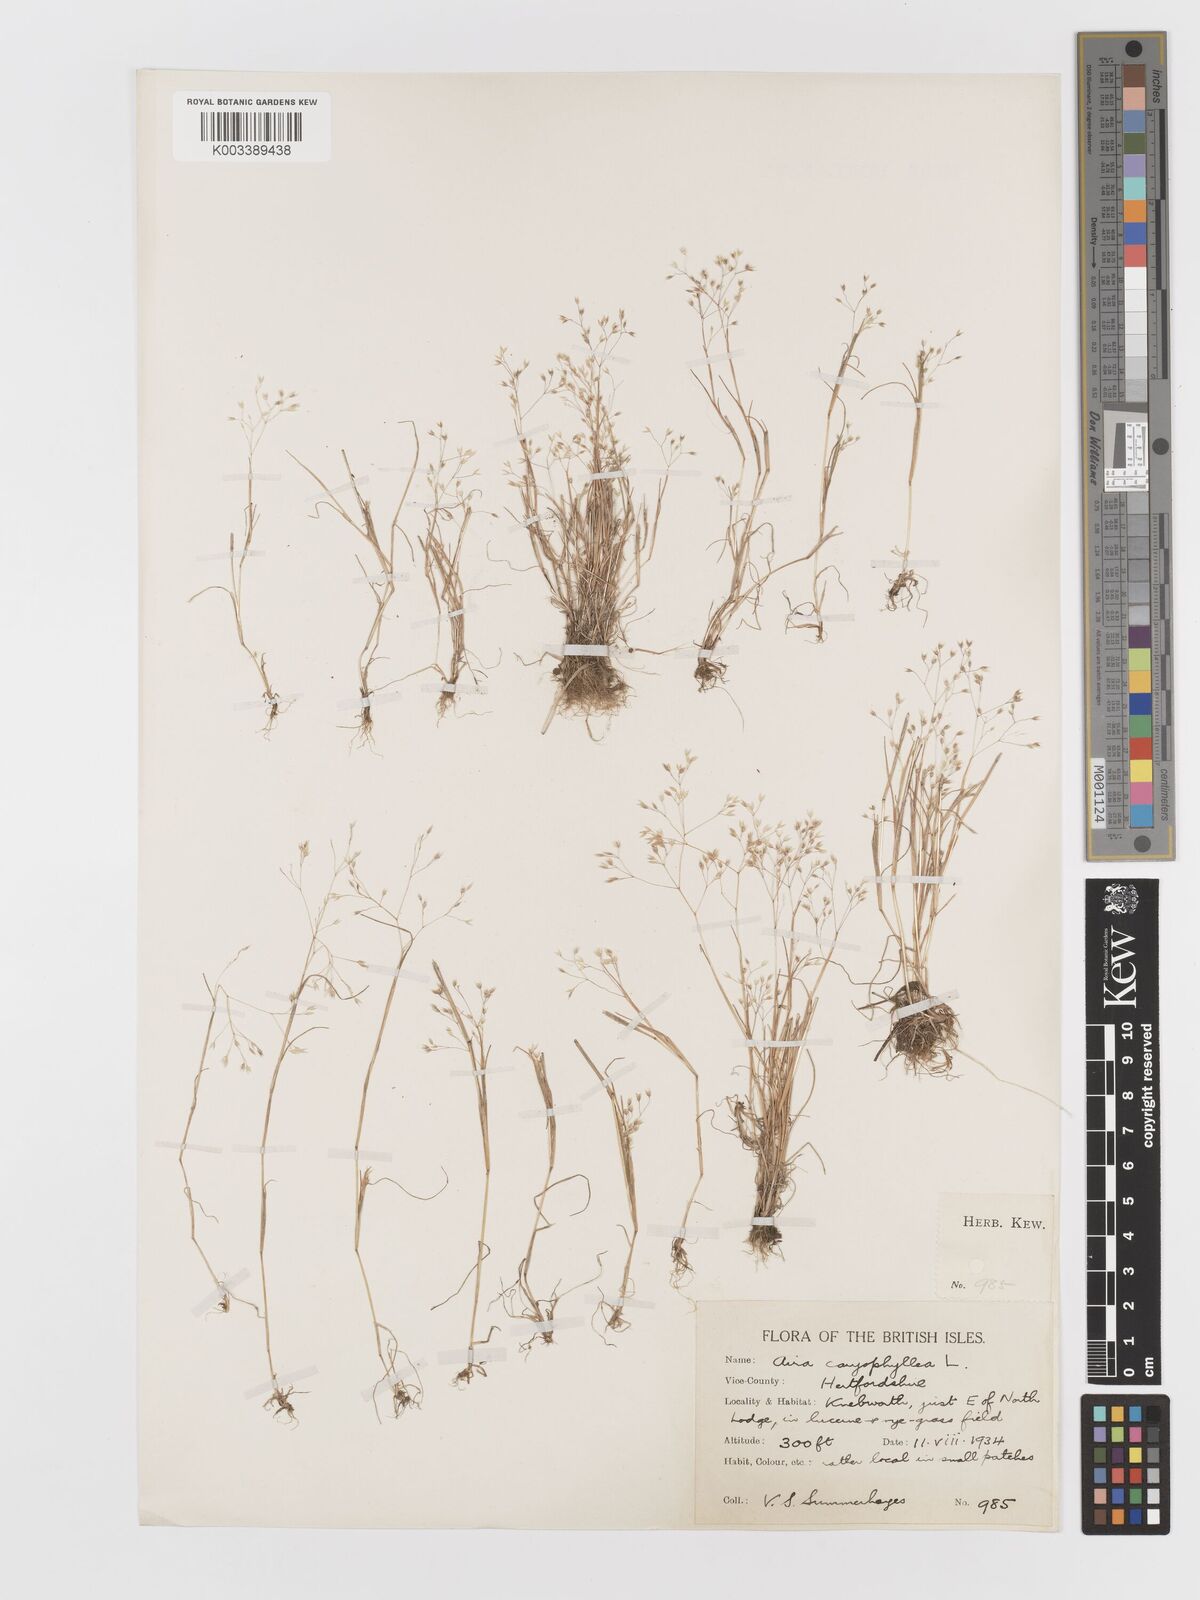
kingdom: Plantae
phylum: Tracheophyta
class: Liliopsida
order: Poales
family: Poaceae
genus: Aira
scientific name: Aira caryophyllea
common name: Silver hairgrass
